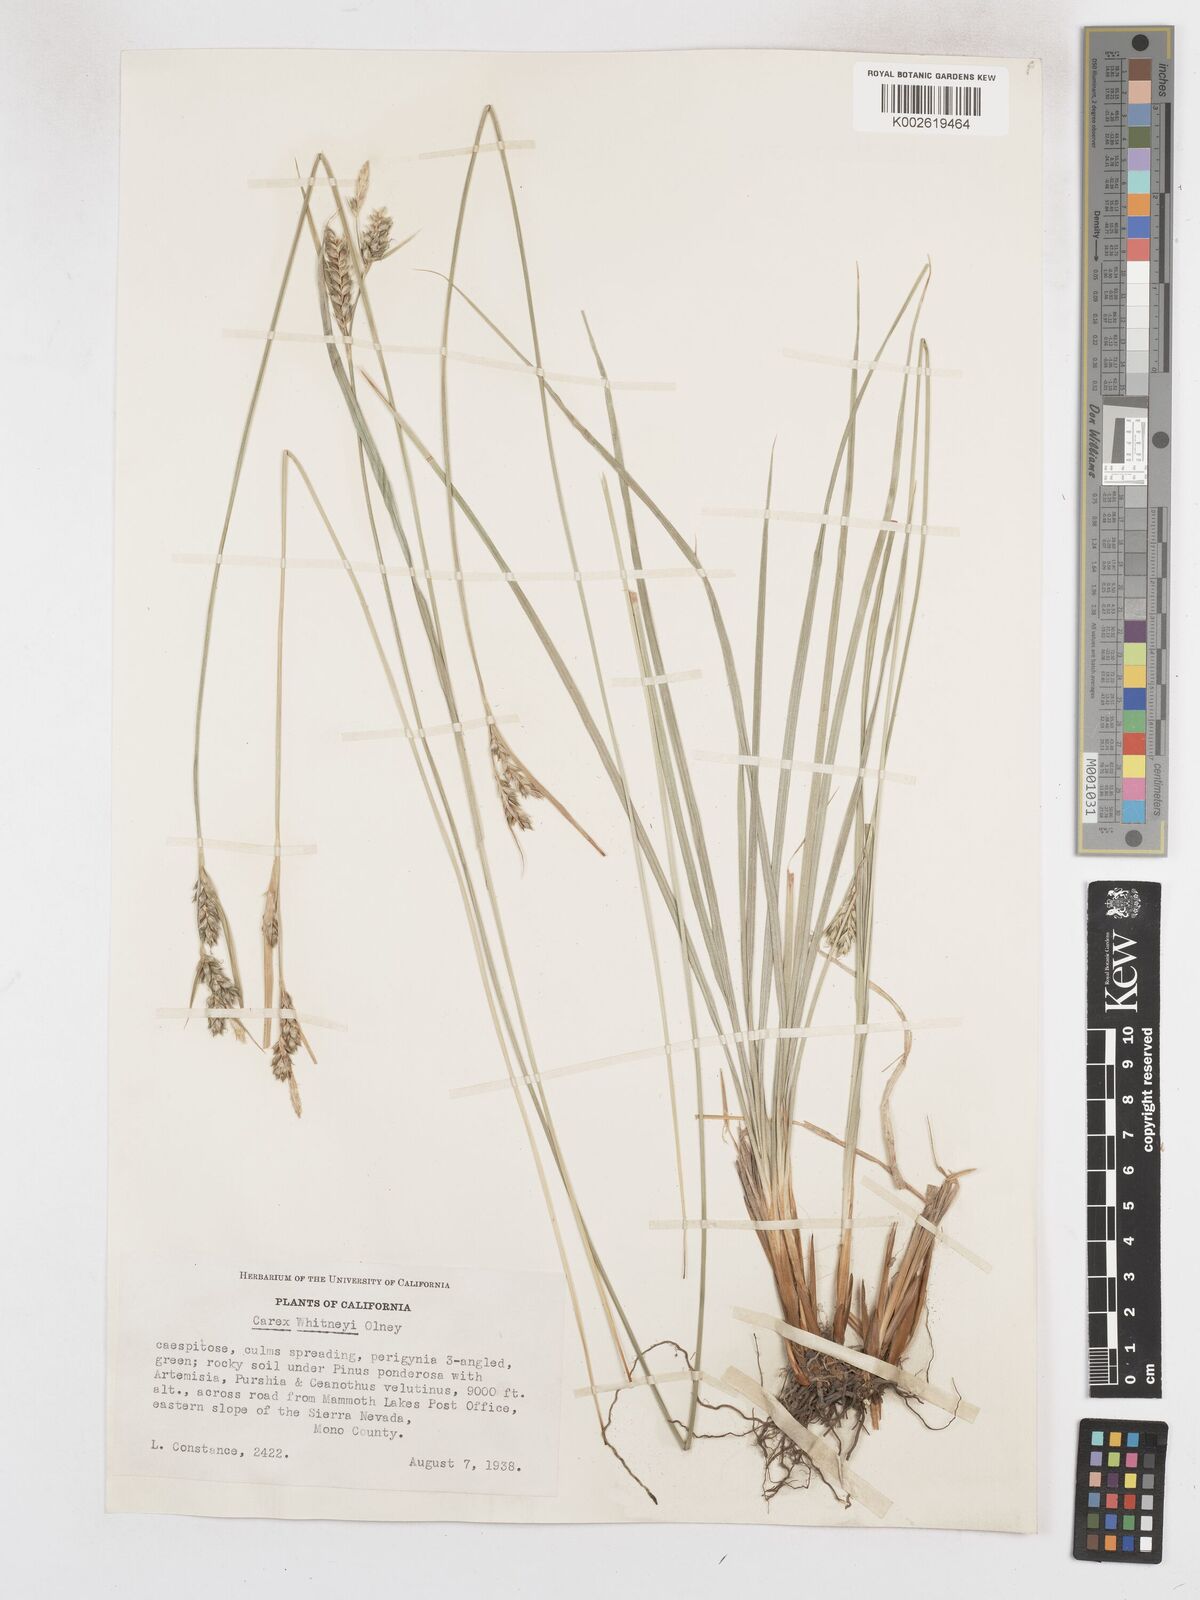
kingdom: Plantae
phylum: Tracheophyta
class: Liliopsida
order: Poales
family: Cyperaceae
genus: Carex
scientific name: Carex whitneyi
